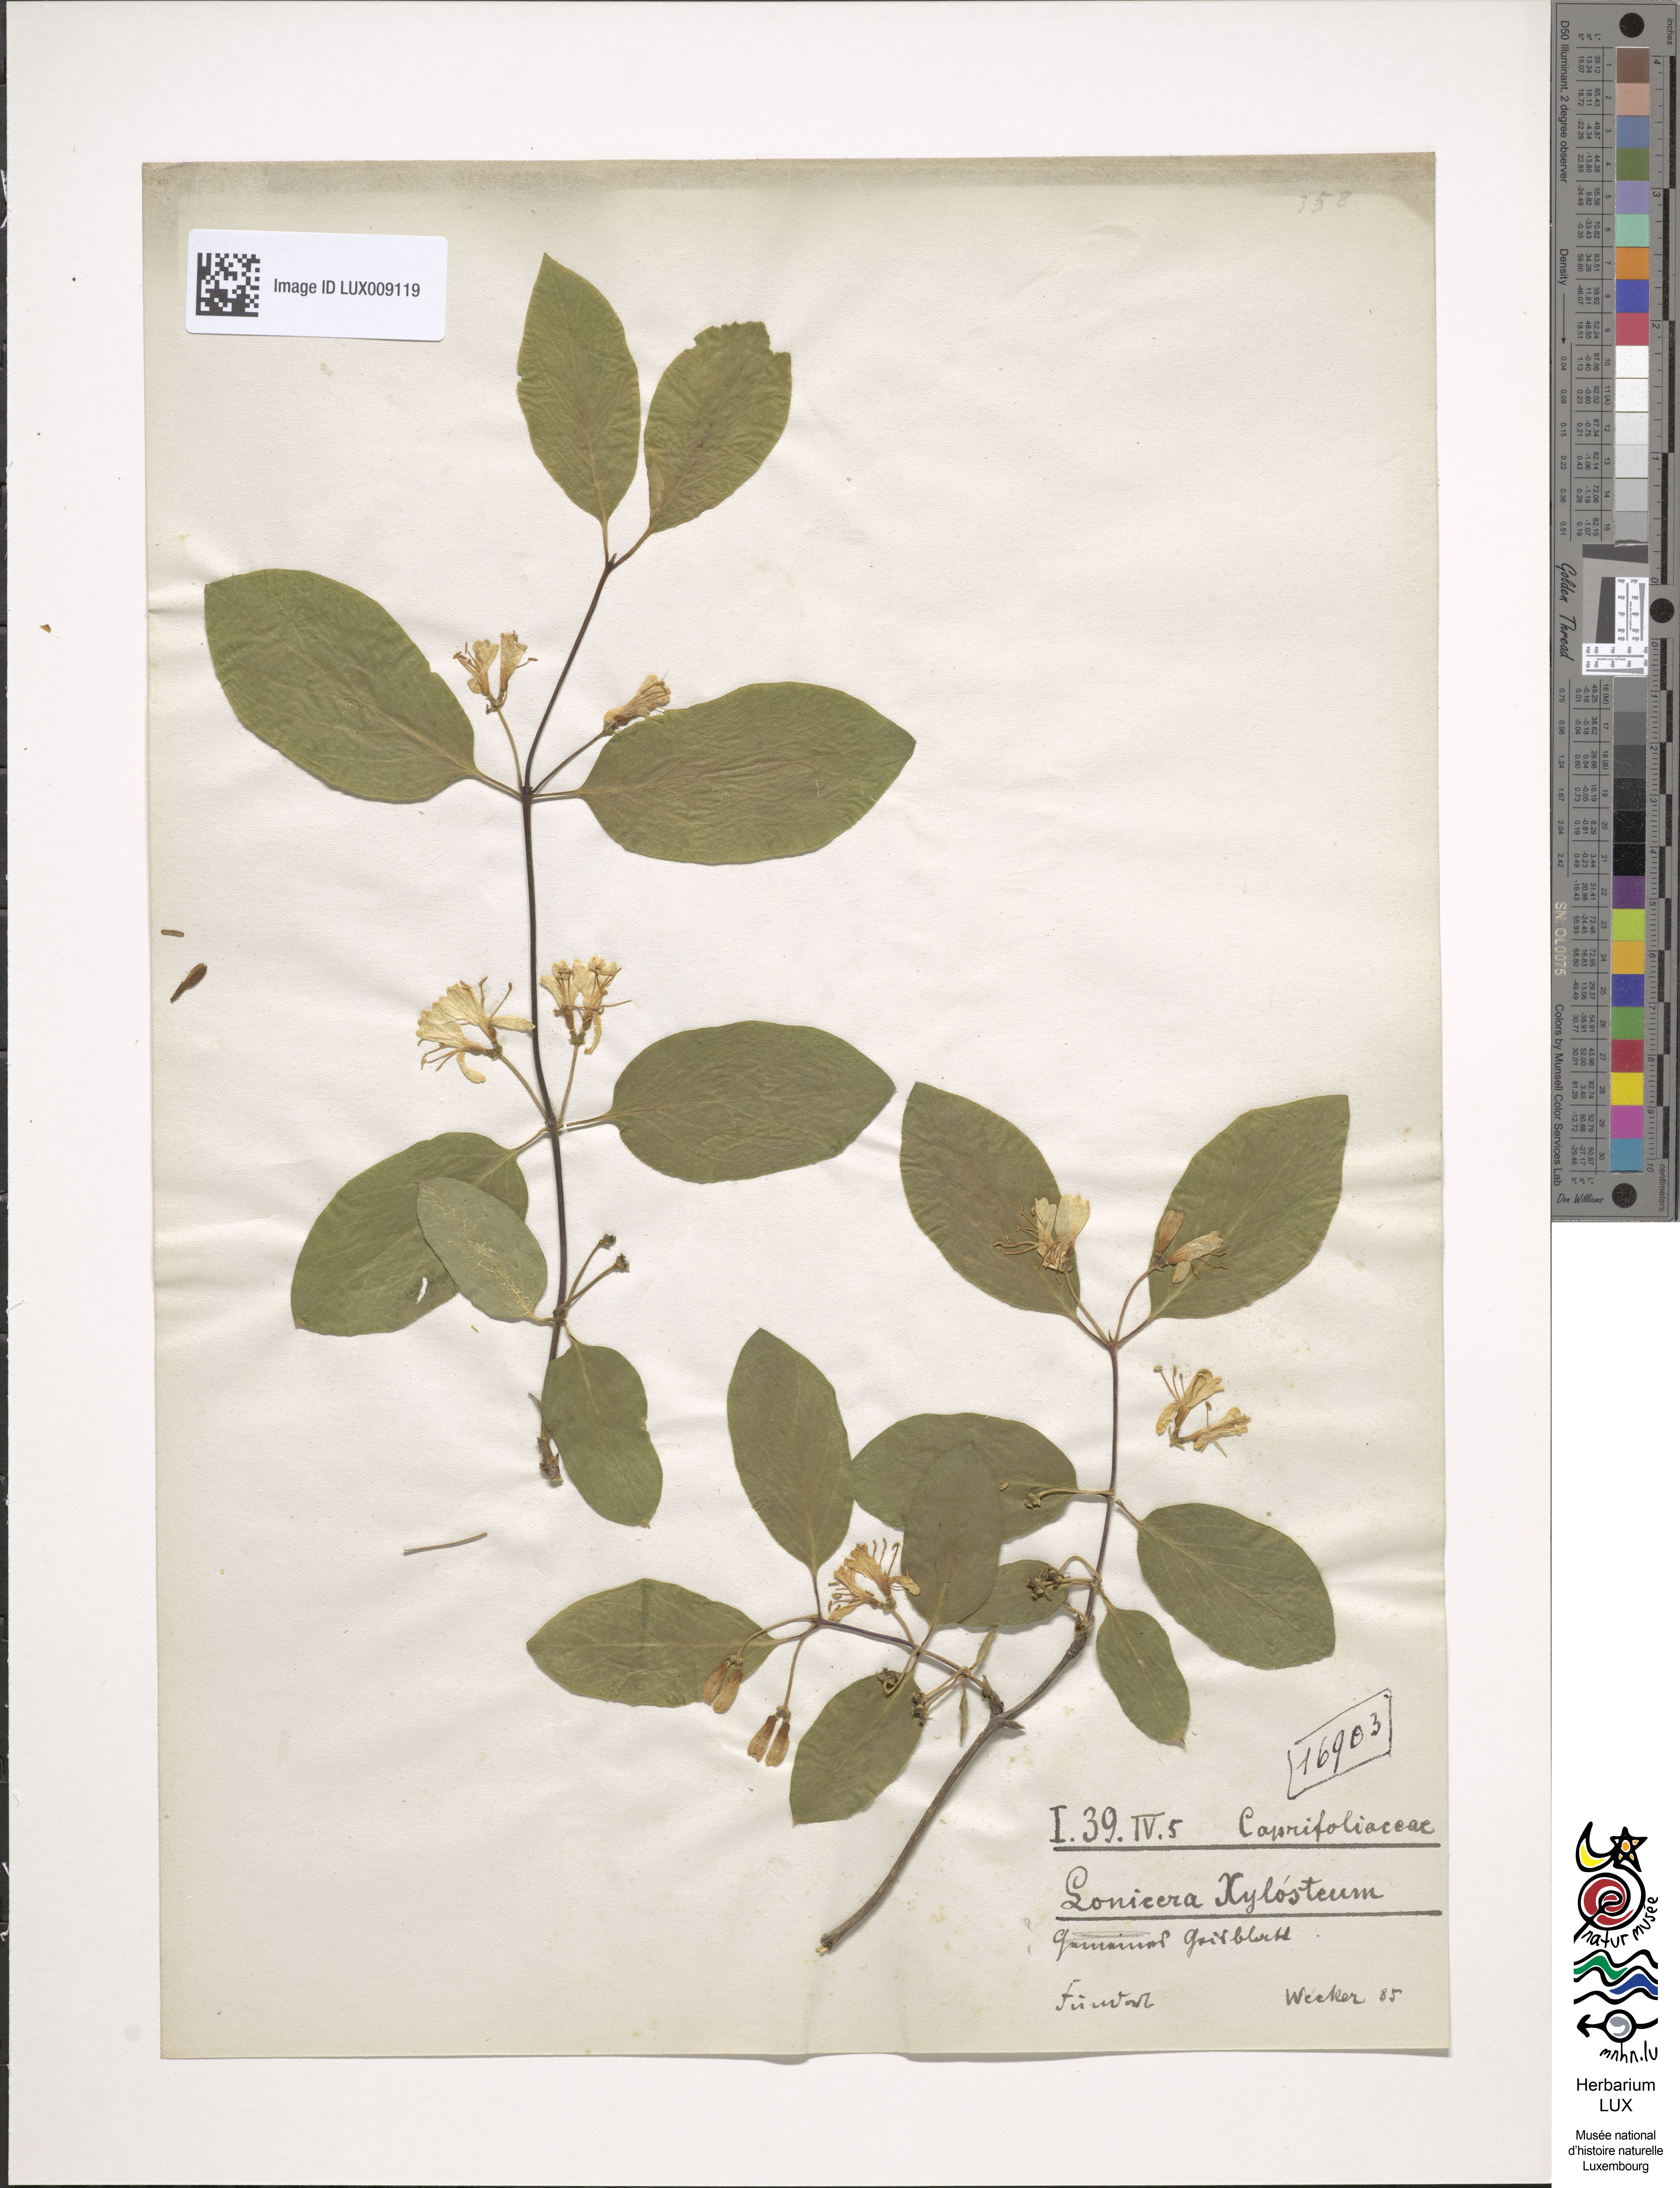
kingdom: Plantae
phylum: Tracheophyta
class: Magnoliopsida
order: Dipsacales
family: Caprifoliaceae
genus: Lonicera
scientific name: Lonicera xylosteum
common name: Fly honeysuckle
